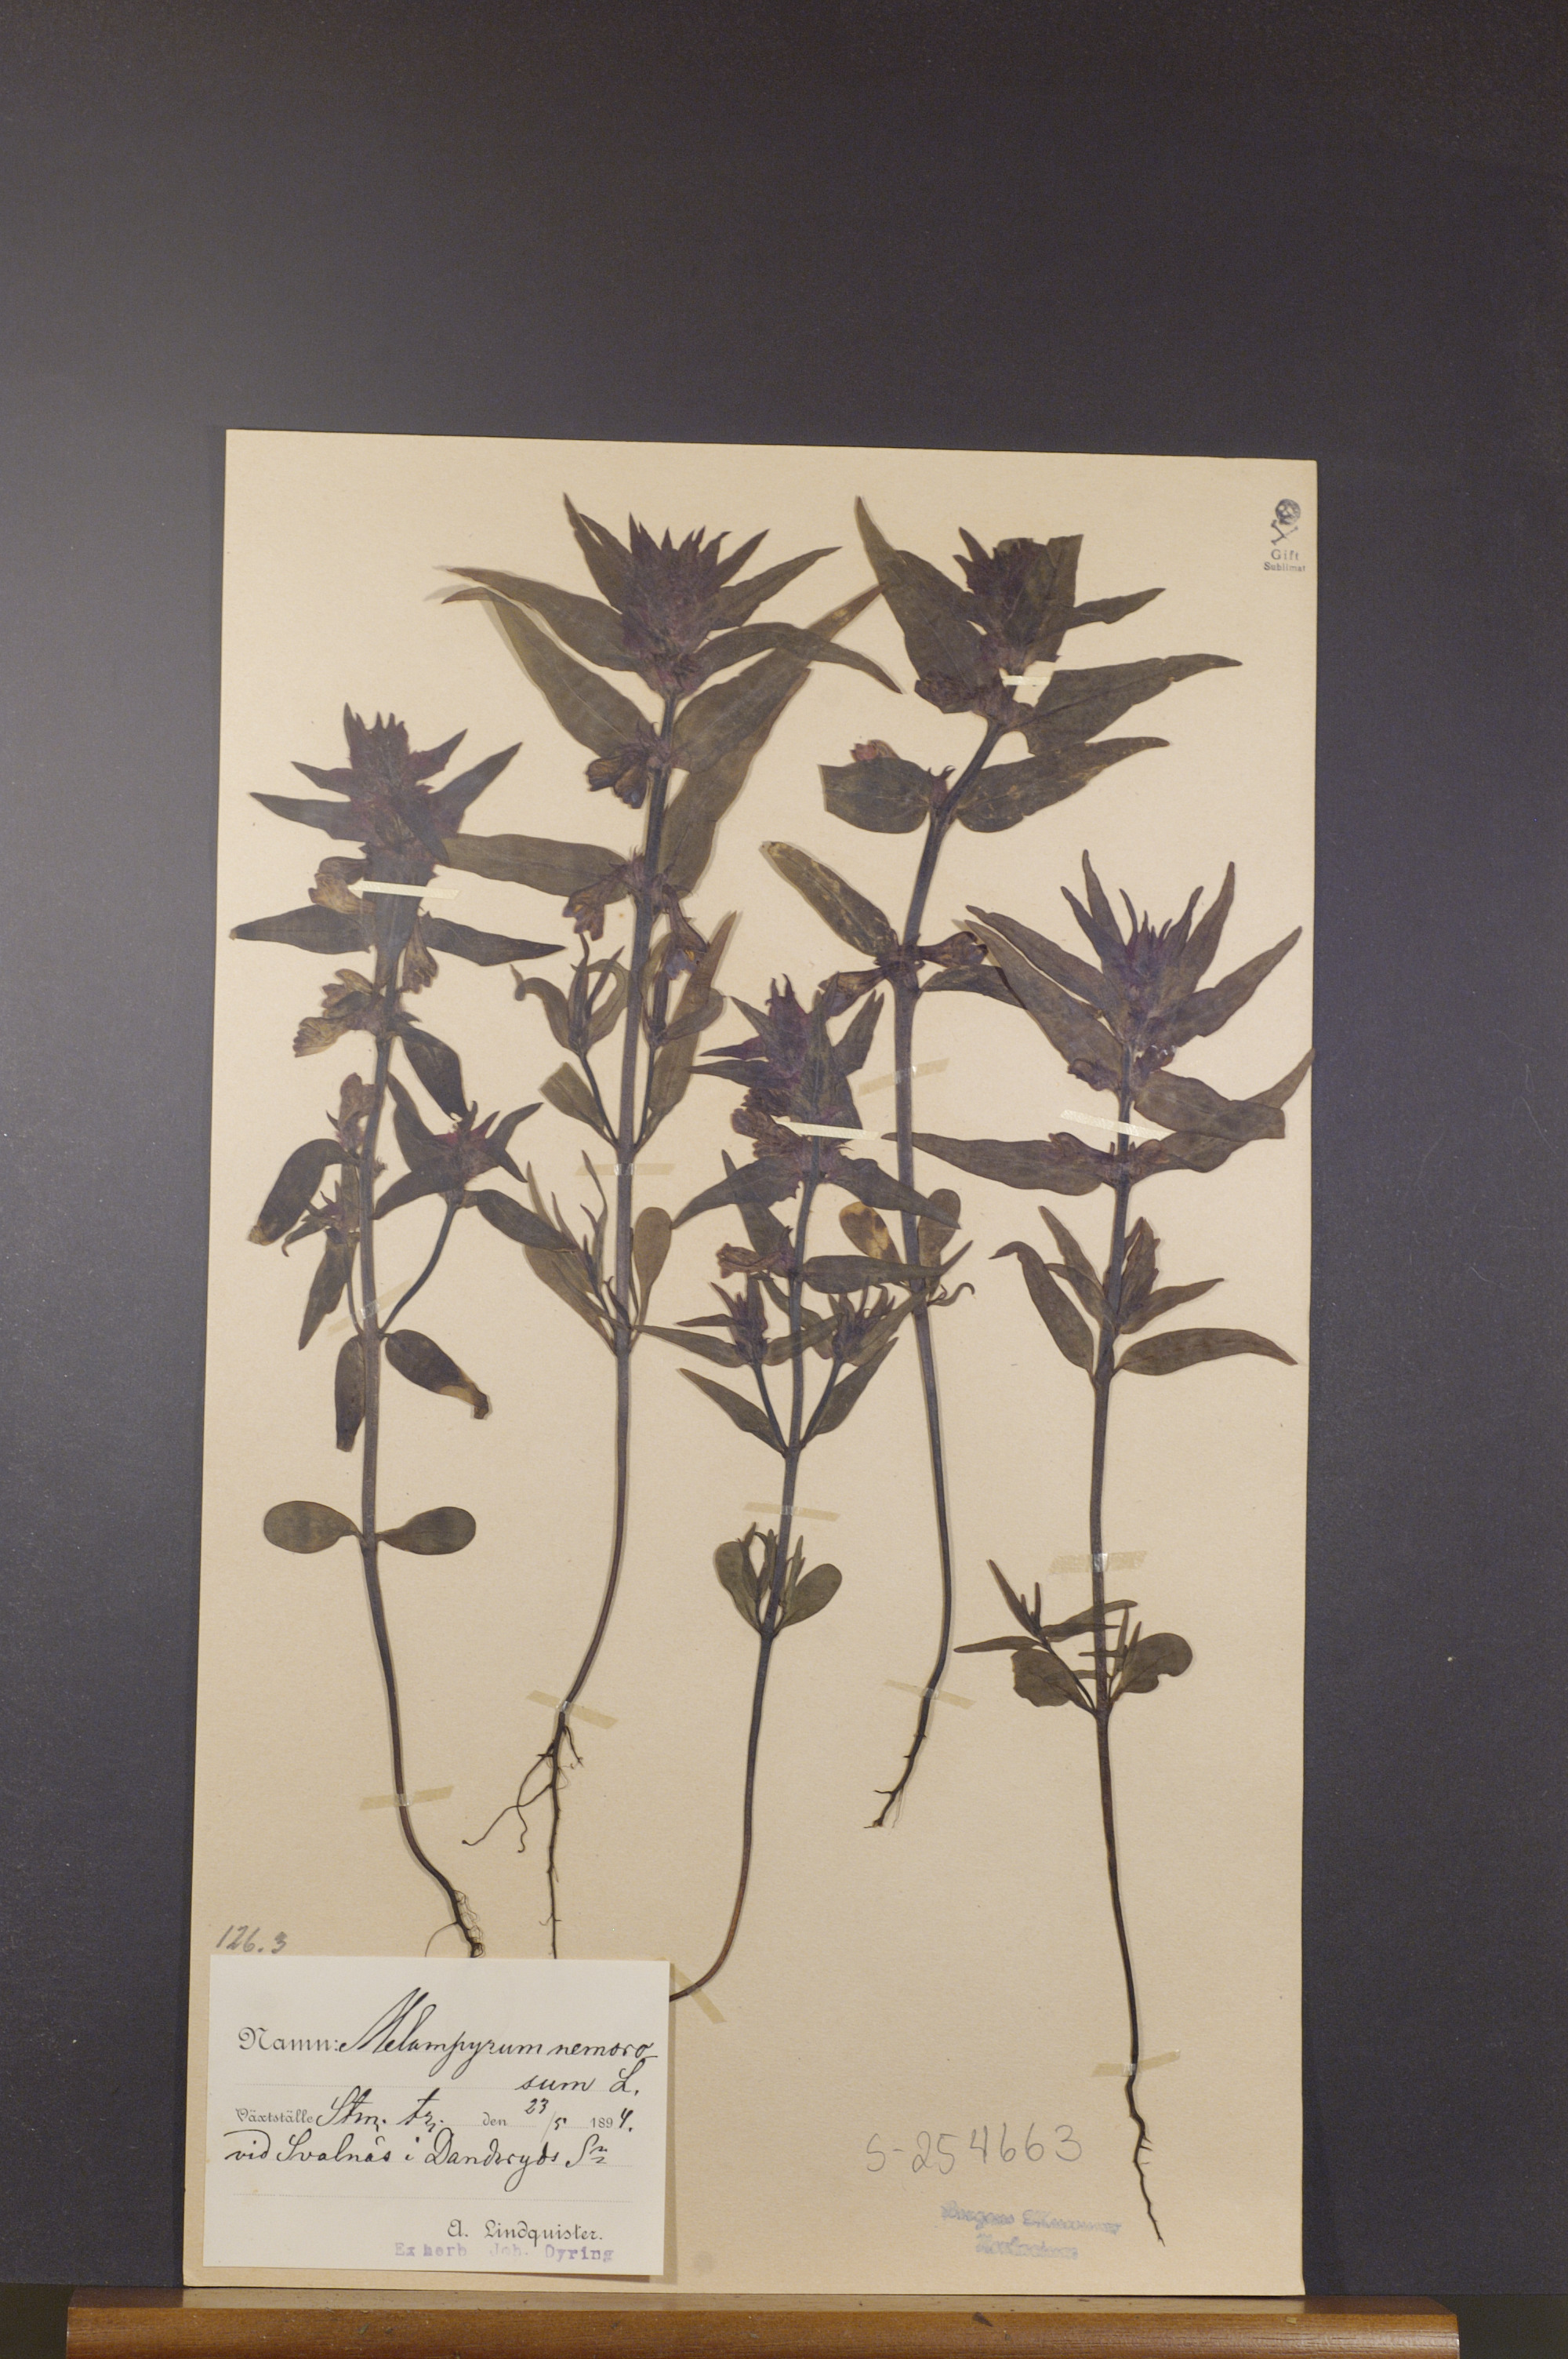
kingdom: Plantae
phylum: Tracheophyta
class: Magnoliopsida
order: Lamiales
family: Orobanchaceae
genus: Melampyrum
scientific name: Melampyrum nemorosum
